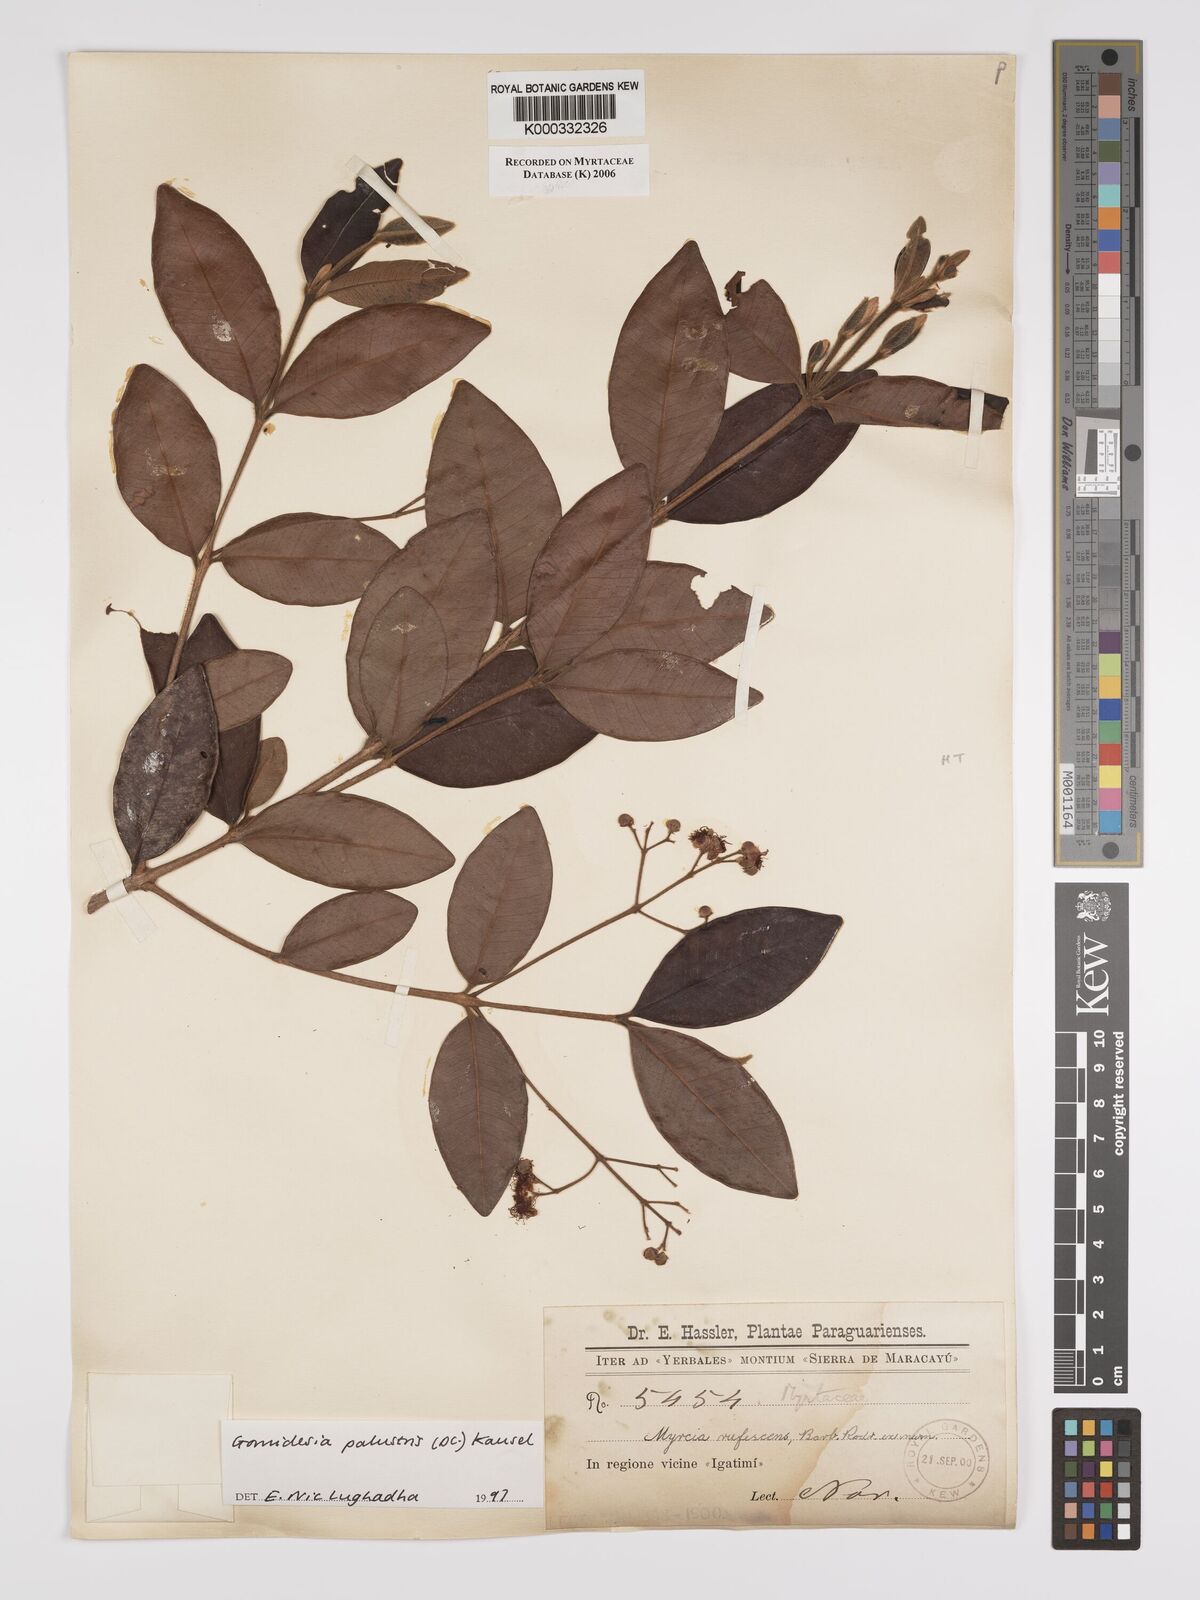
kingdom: Plantae
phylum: Tracheophyta
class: Magnoliopsida
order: Myrtales
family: Myrtaceae
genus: Myrcia
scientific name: Myrcia palustris
